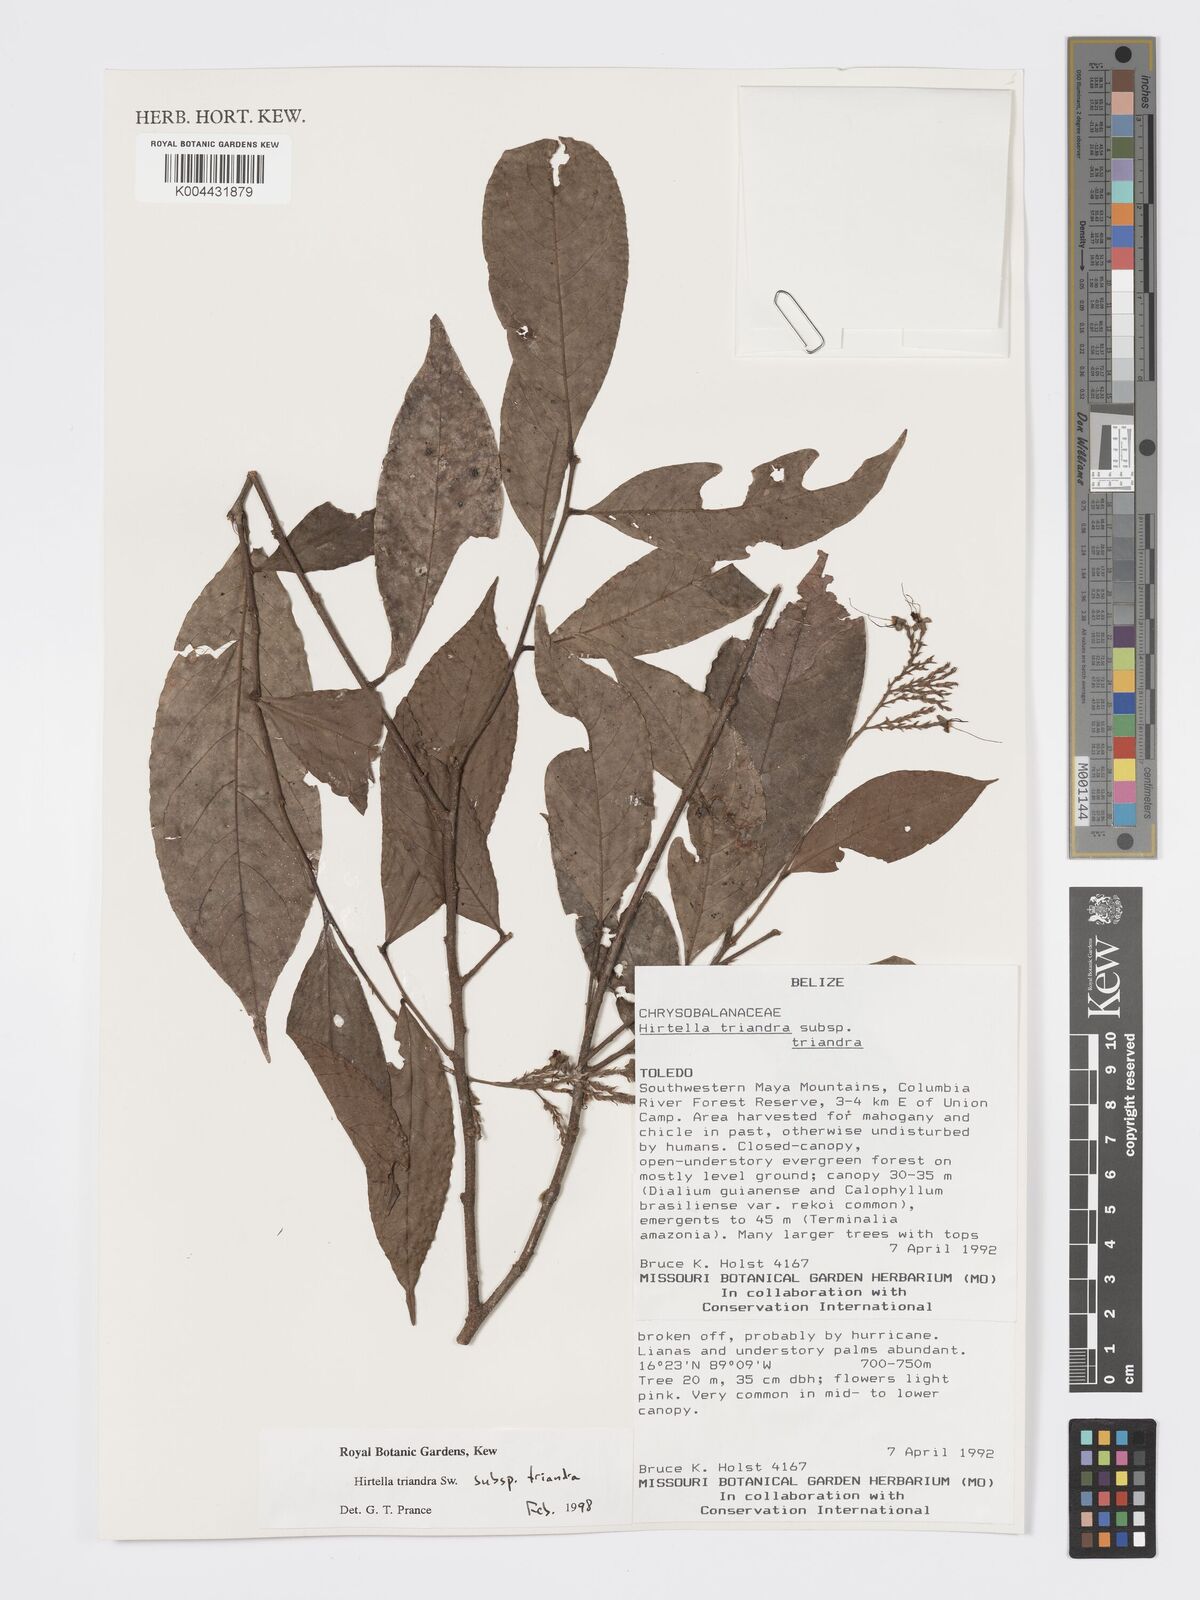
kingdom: Plantae
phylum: Tracheophyta
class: Magnoliopsida
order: Malpighiales
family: Chrysobalanaceae
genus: Hirtella
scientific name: Hirtella triandra
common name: Hairy plum
